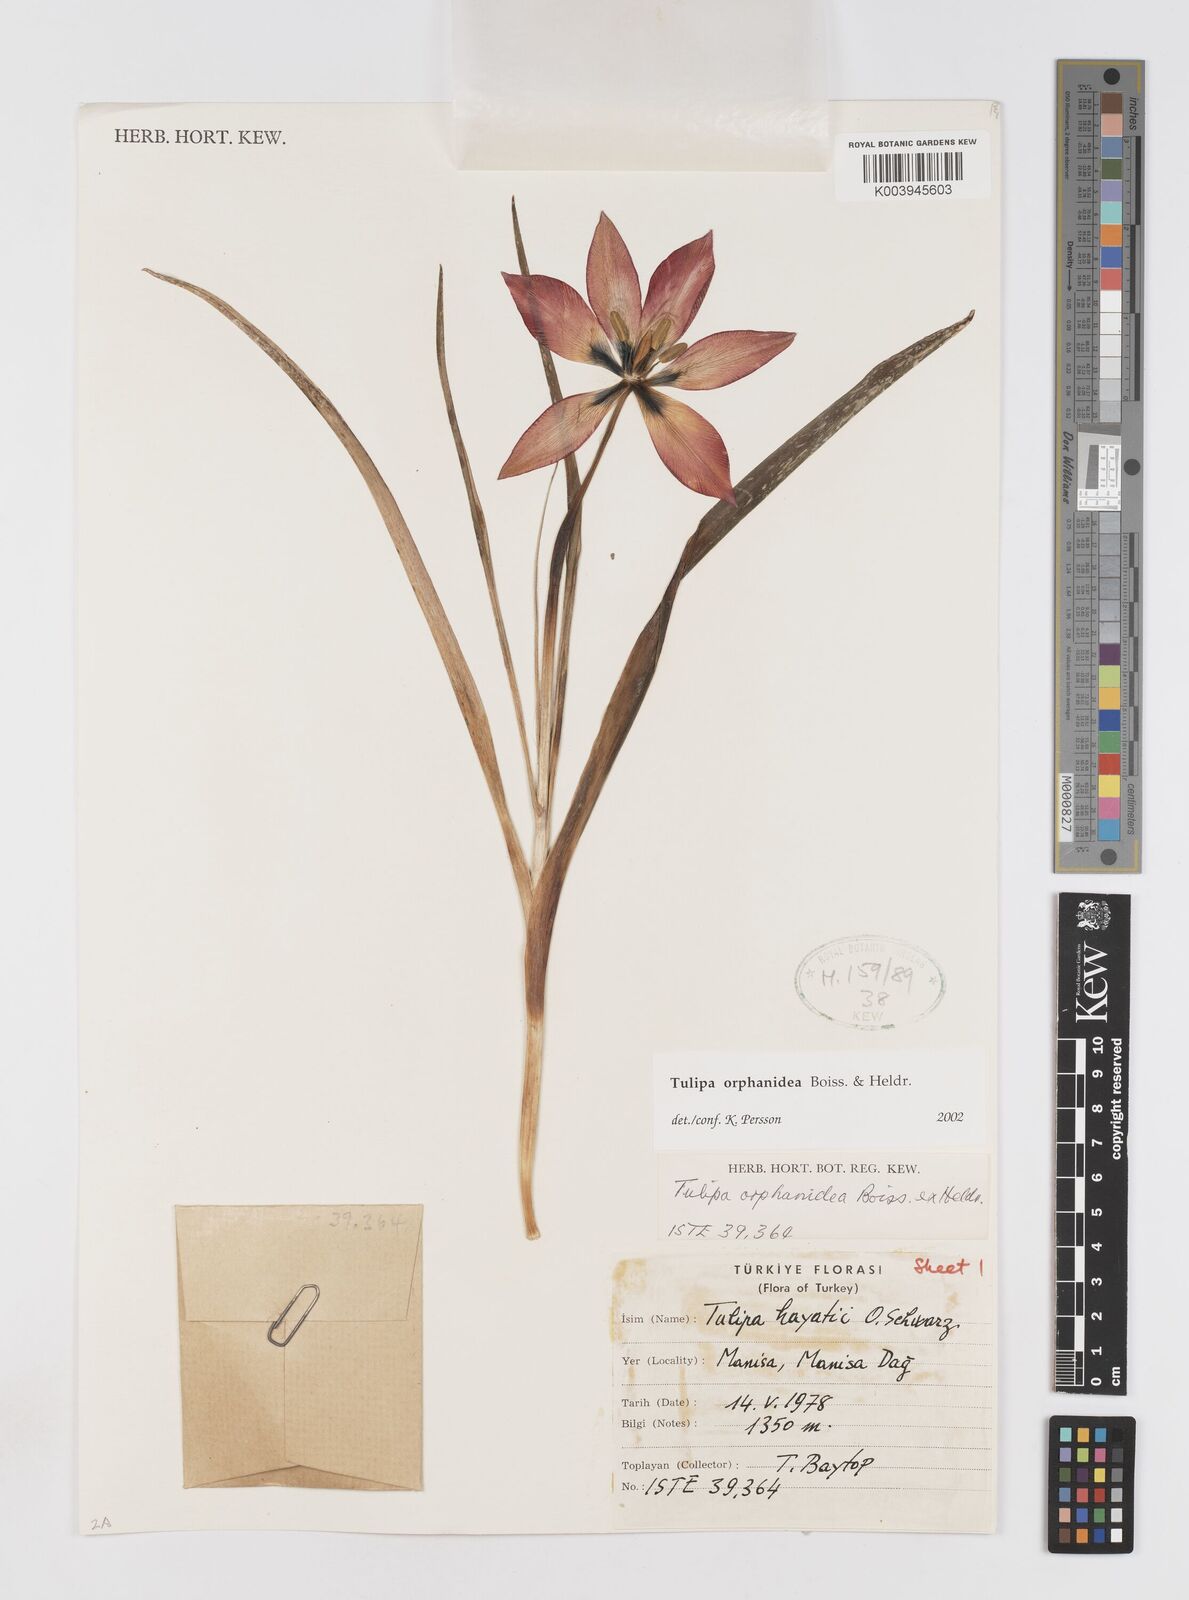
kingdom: Plantae
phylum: Tracheophyta
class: Liliopsida
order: Liliales
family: Liliaceae
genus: Tulipa
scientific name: Tulipa orphanidea
